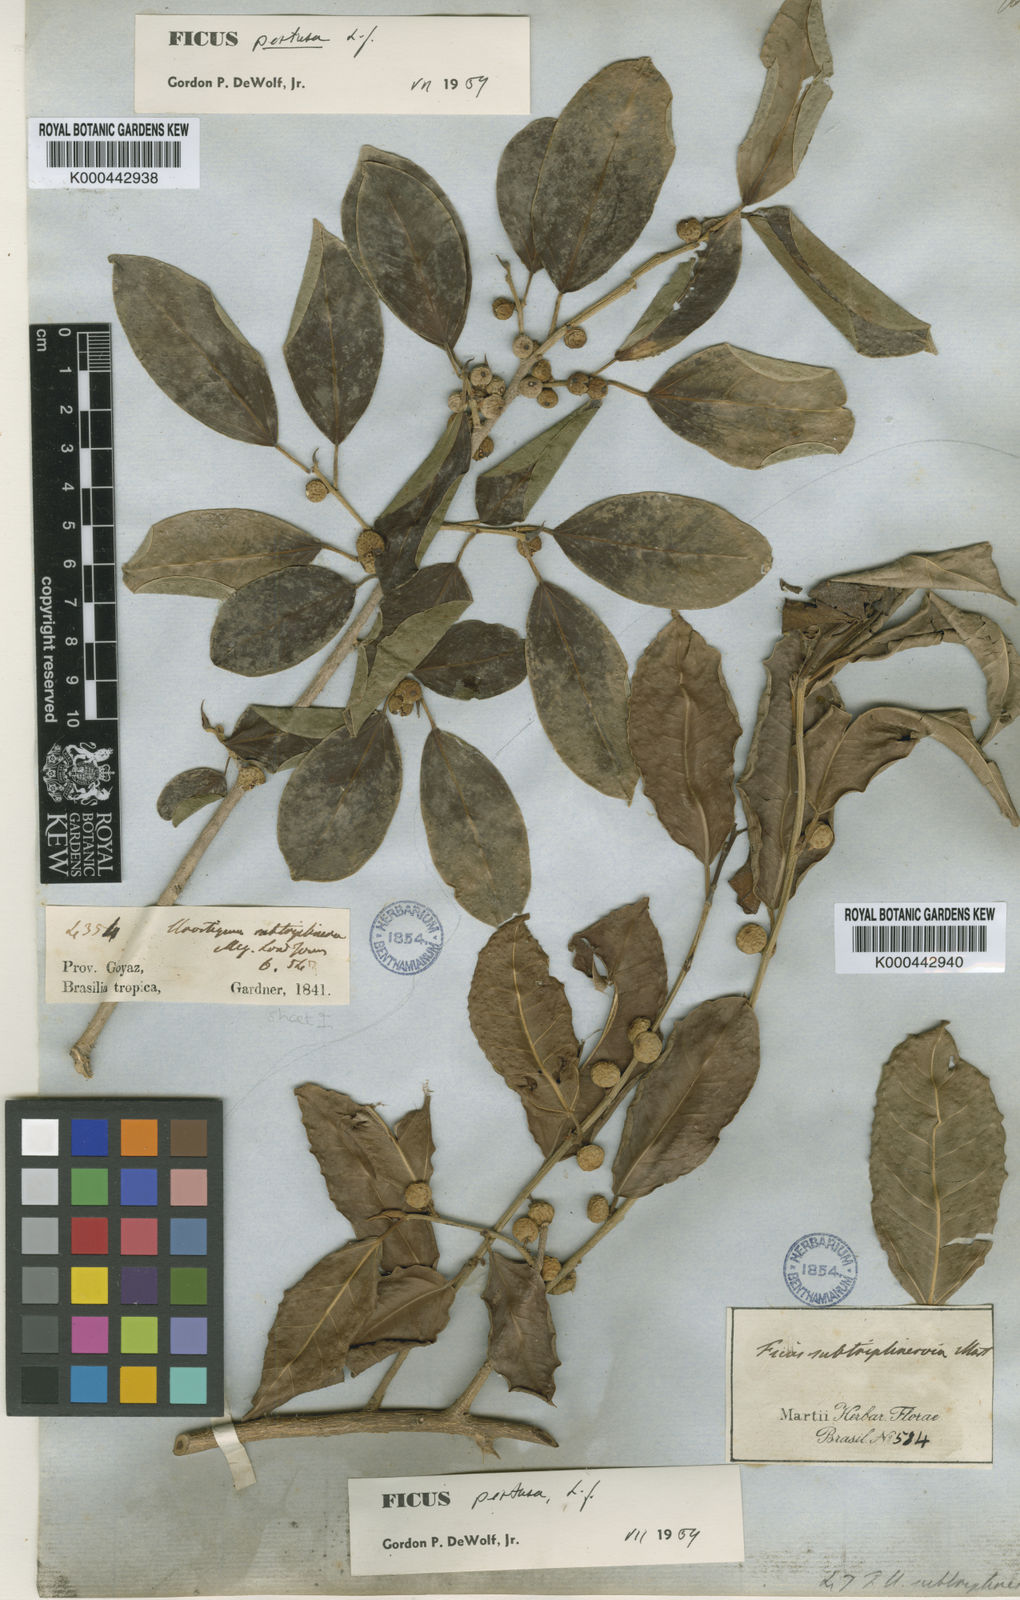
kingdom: Plantae
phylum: Tracheophyta
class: Magnoliopsida
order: Rosales
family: Moraceae
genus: Ficus
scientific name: Ficus pertusa
